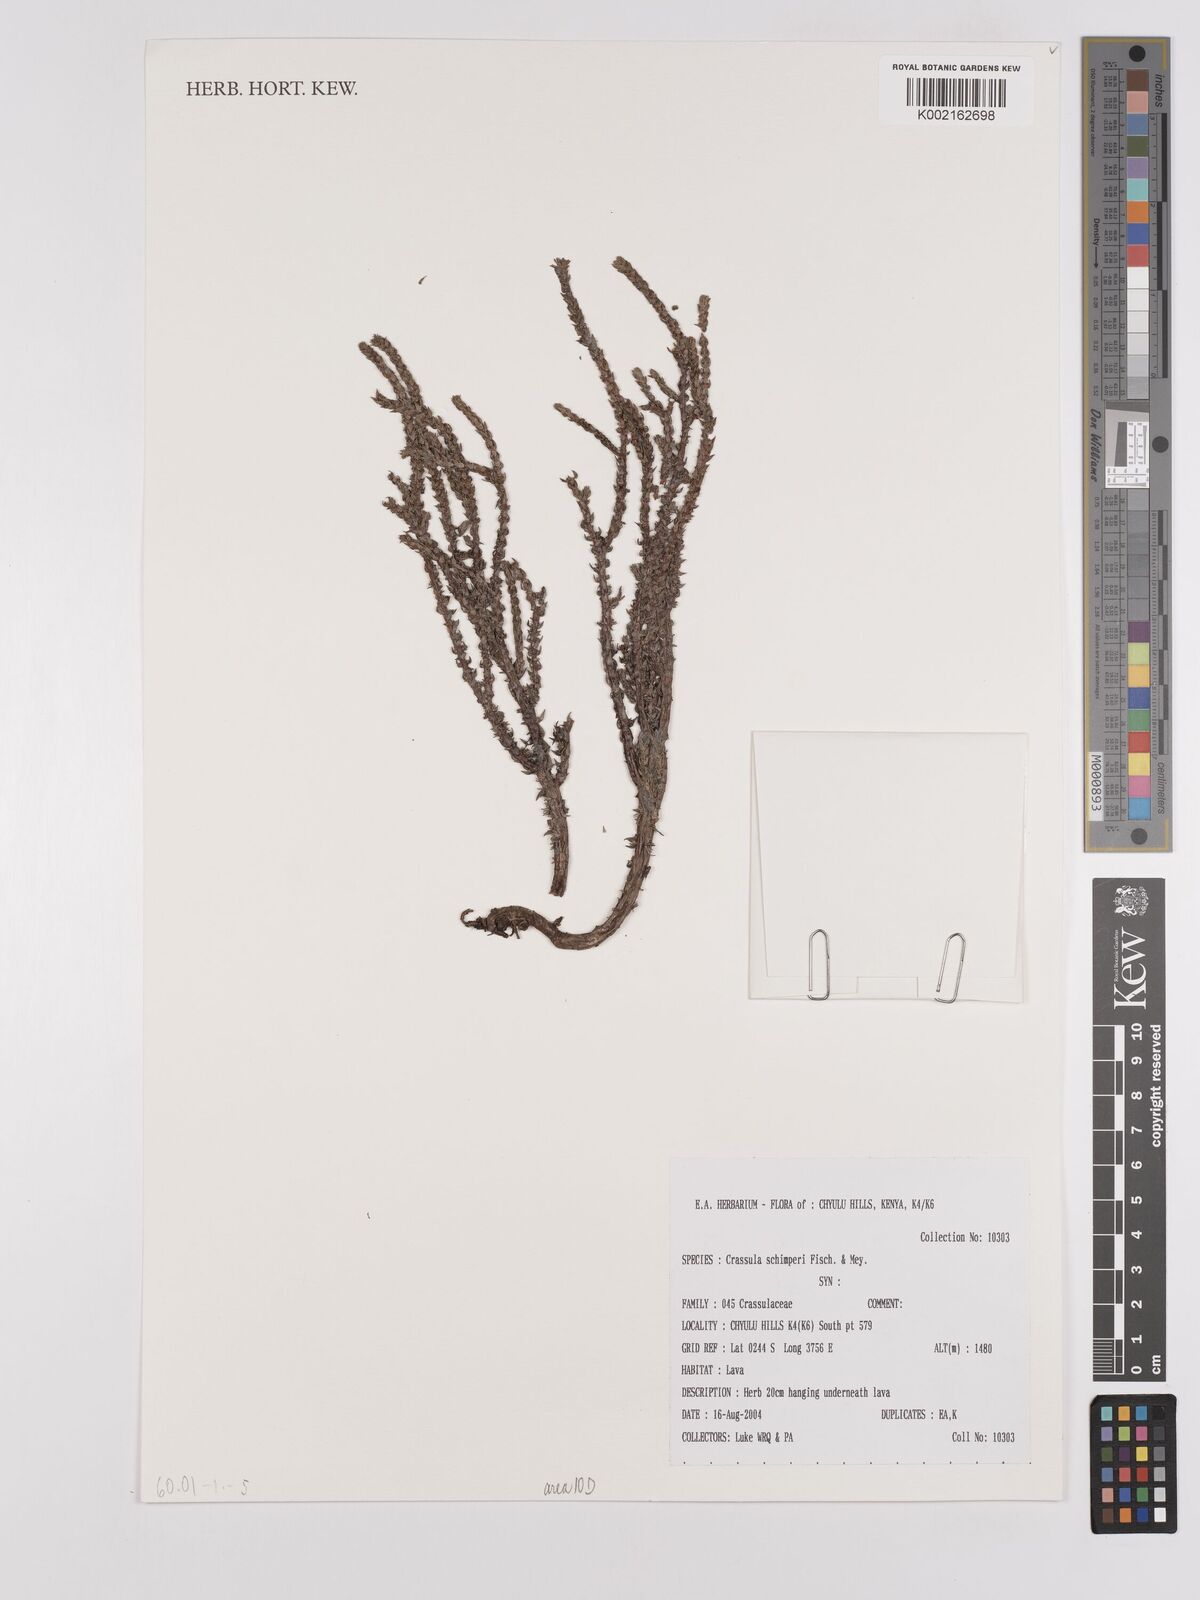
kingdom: Plantae
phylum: Tracheophyta
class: Magnoliopsida
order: Saxifragales
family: Crassulaceae
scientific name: Crassulaceae
